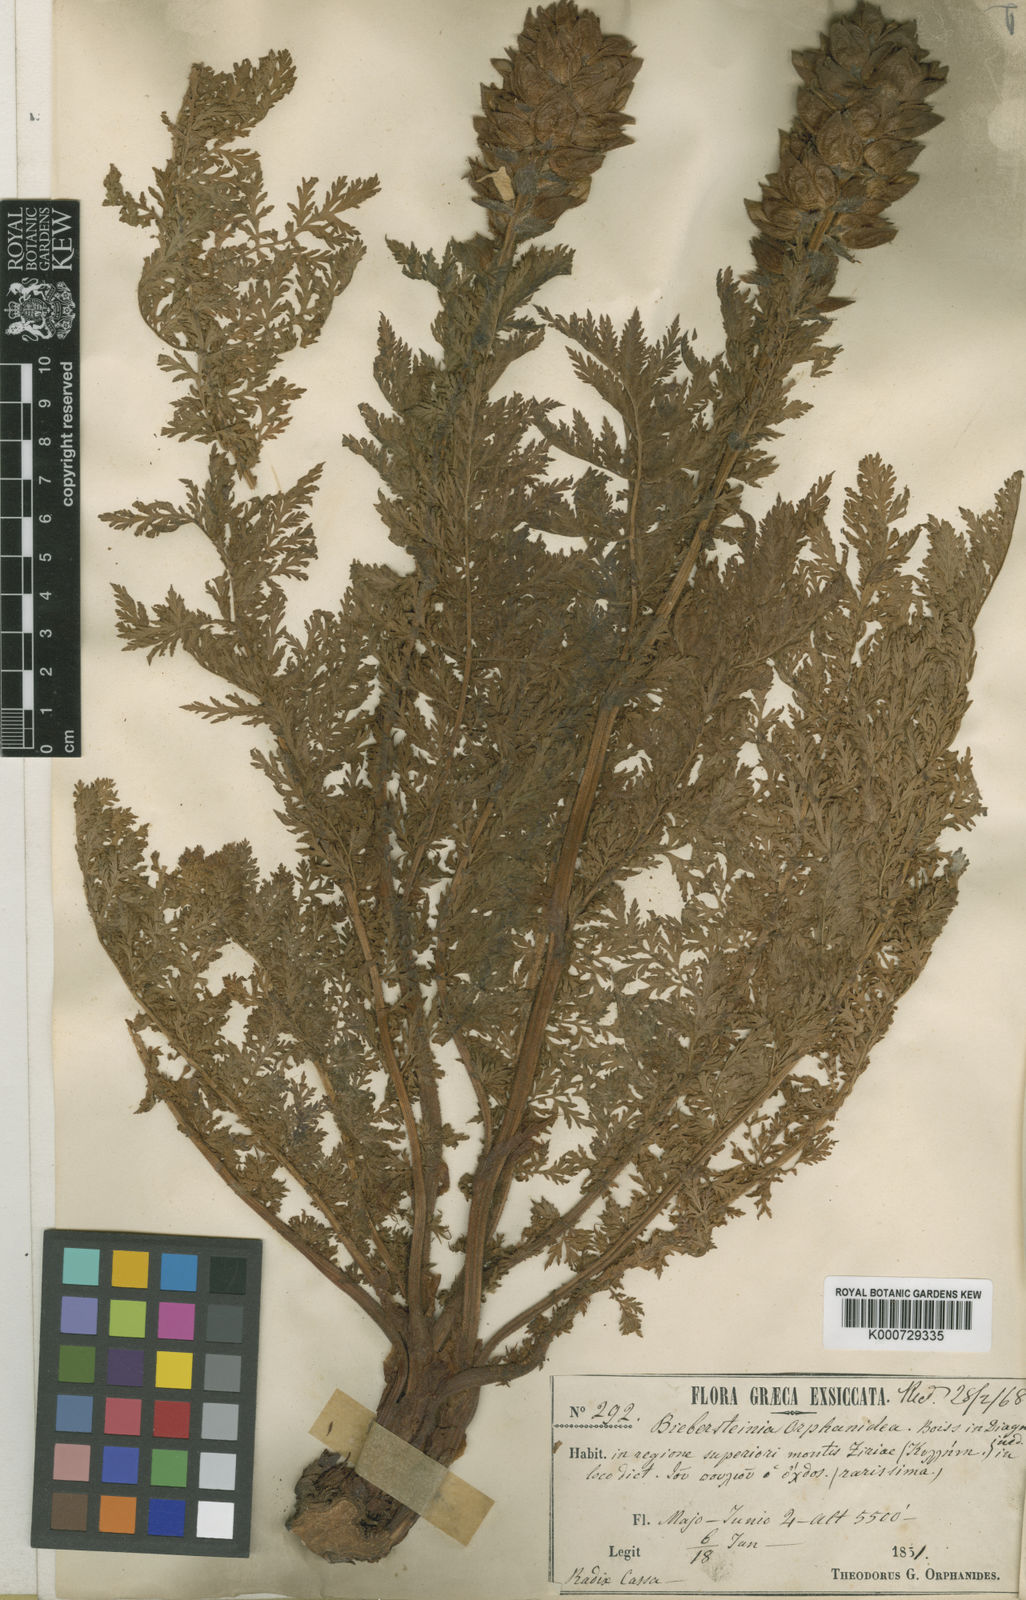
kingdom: Plantae
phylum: Tracheophyta
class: Magnoliopsida
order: Sapindales
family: Biebersteiniaceae
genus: Biebersteinia
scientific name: Biebersteinia orphanidis
